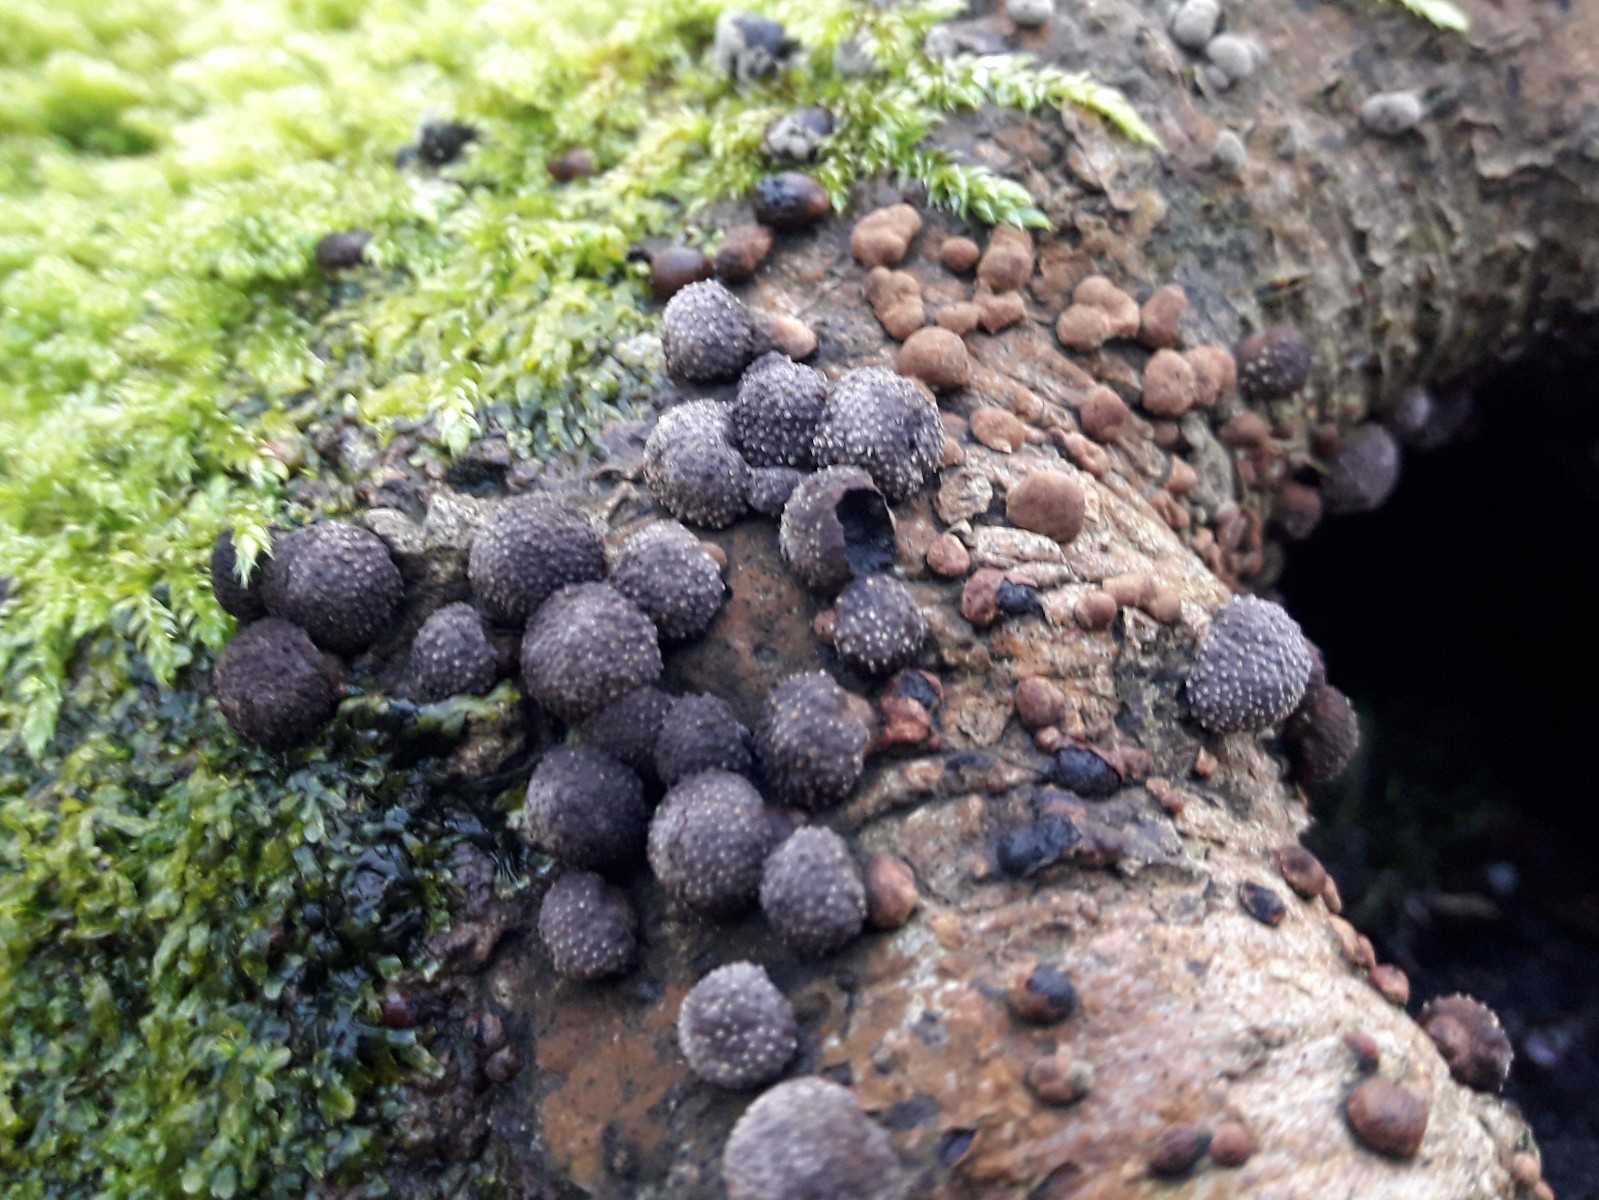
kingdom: Fungi
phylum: Ascomycota
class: Sordariomycetes
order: Xylariales
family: Hypoxylaceae
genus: Hypoxylon
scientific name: Hypoxylon fragiforme
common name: kuljordbær
